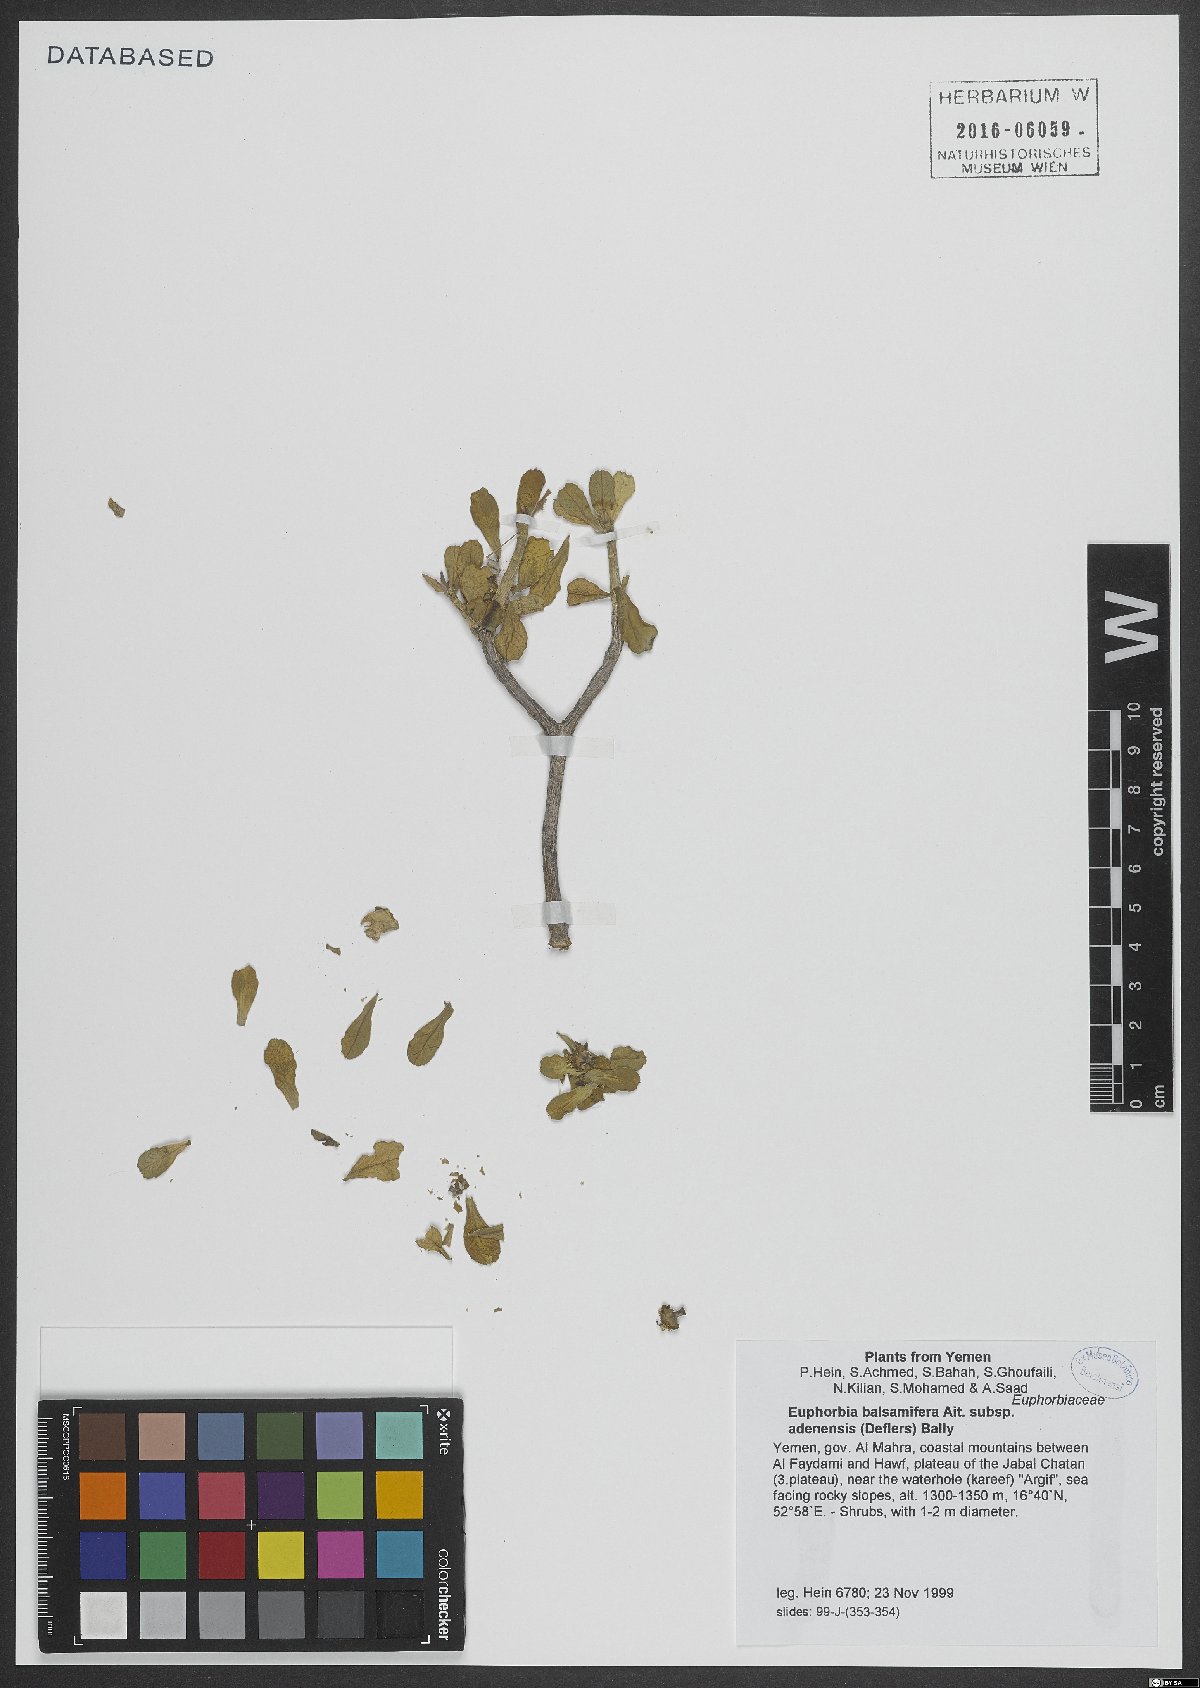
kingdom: Plantae
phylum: Tracheophyta
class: Magnoliopsida
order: Malpighiales
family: Euphorbiaceae
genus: Euphorbia
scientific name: Euphorbia adenensis
